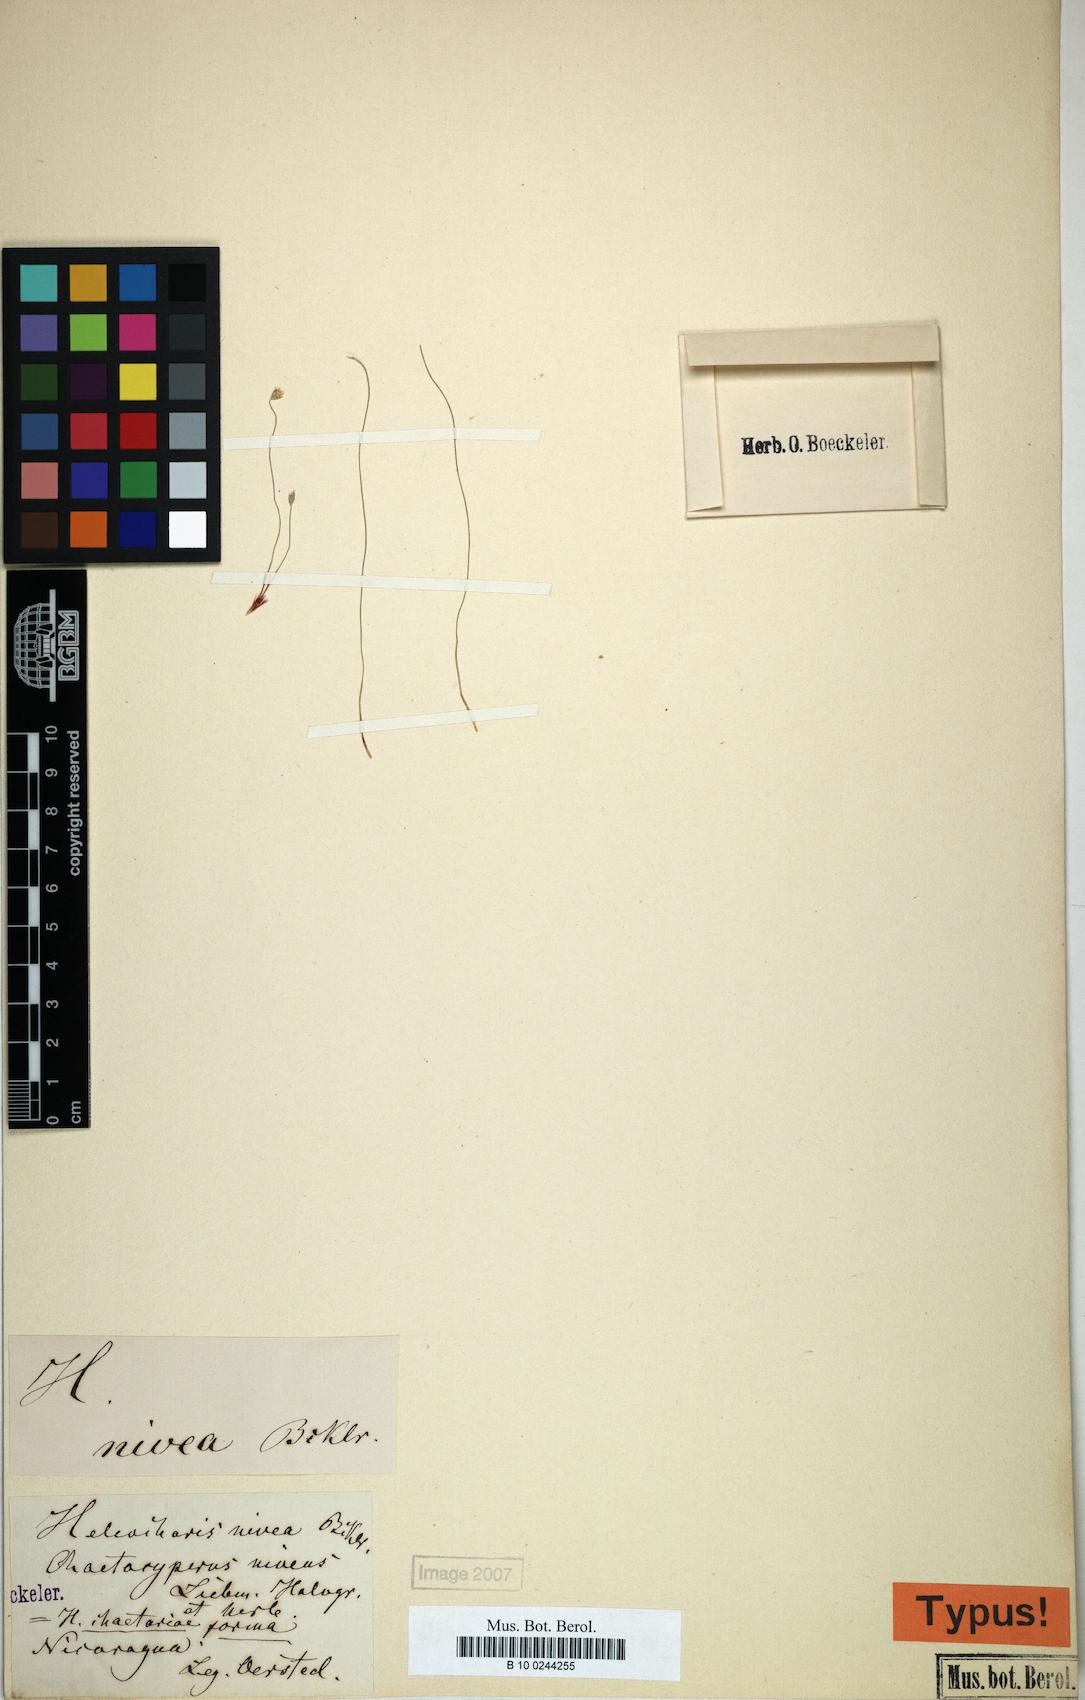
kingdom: Plantae
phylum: Tracheophyta
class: Liliopsida
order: Poales
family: Cyperaceae
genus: Eleocharis
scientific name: Eleocharis retroflexa
